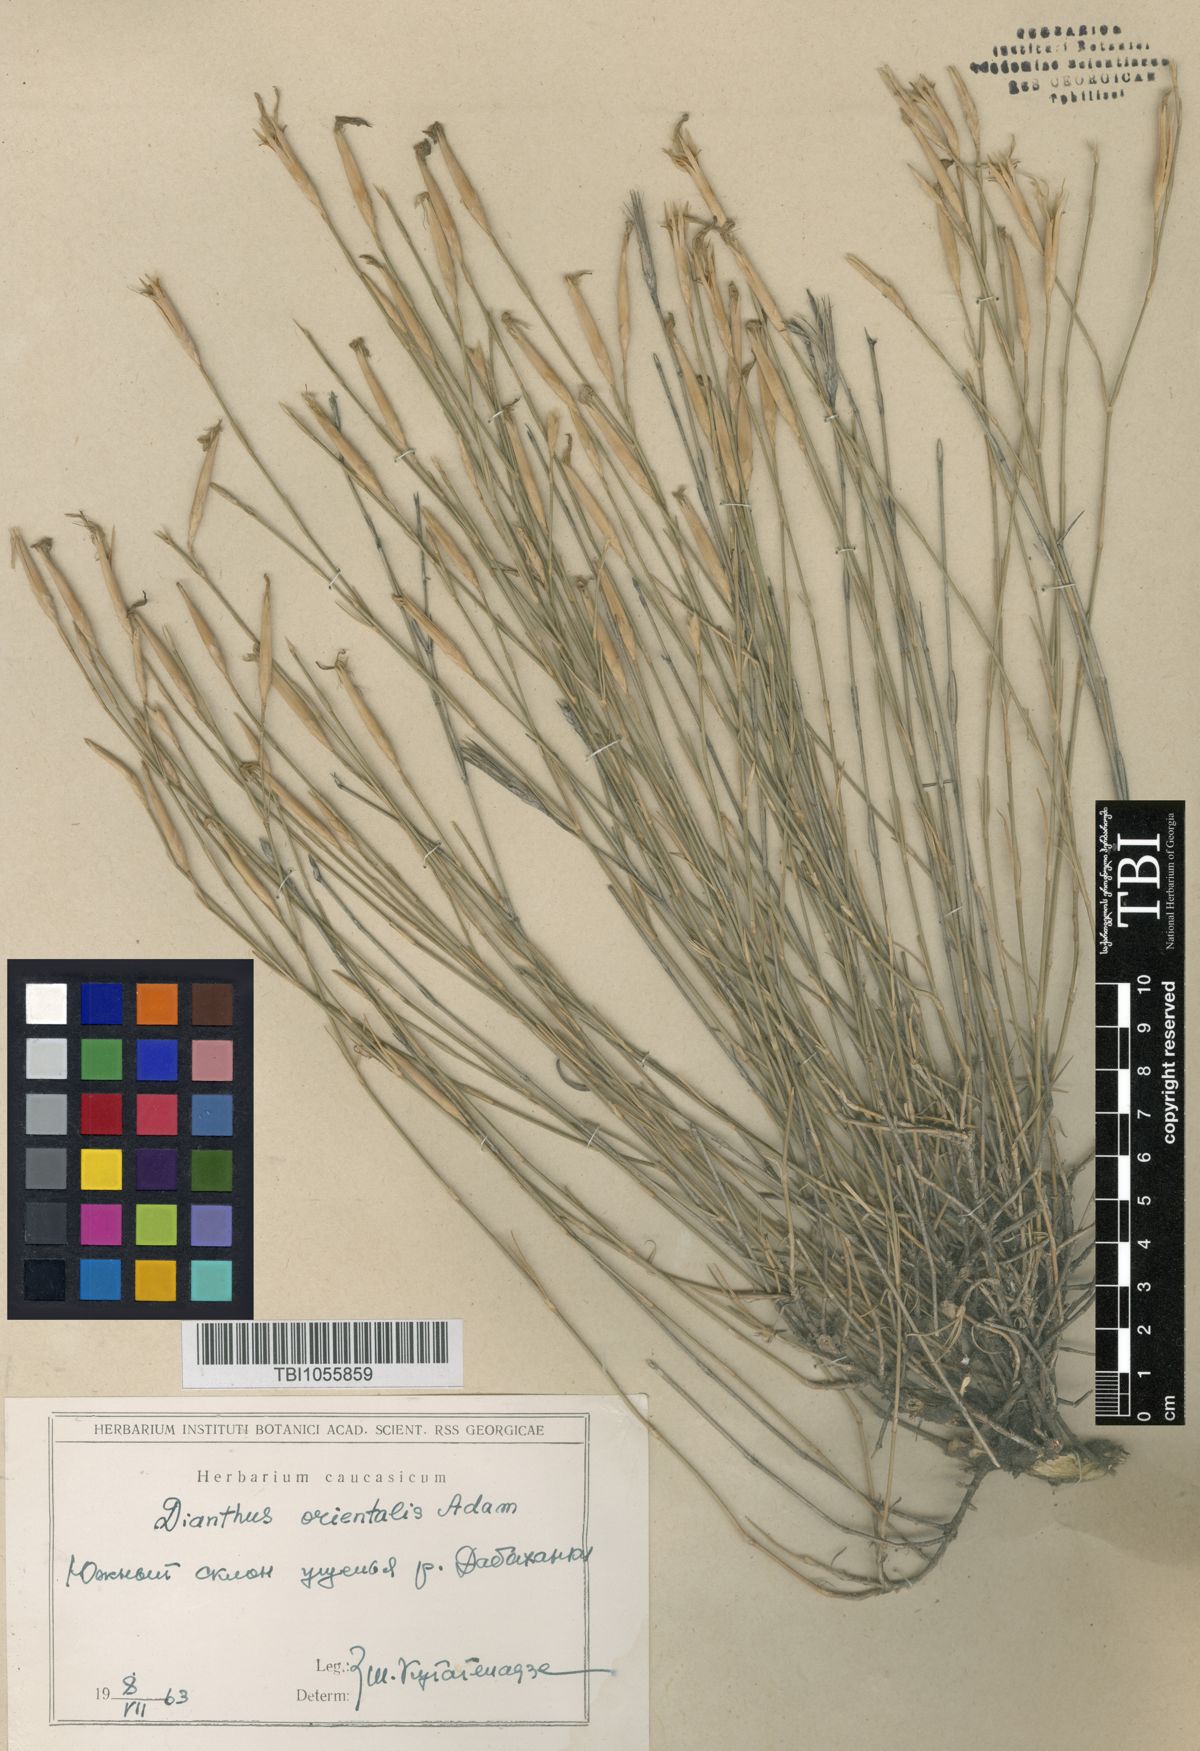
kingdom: Plantae
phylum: Tracheophyta
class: Magnoliopsida
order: Caryophyllales
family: Caryophyllaceae
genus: Dianthus
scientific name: Dianthus orientalis
